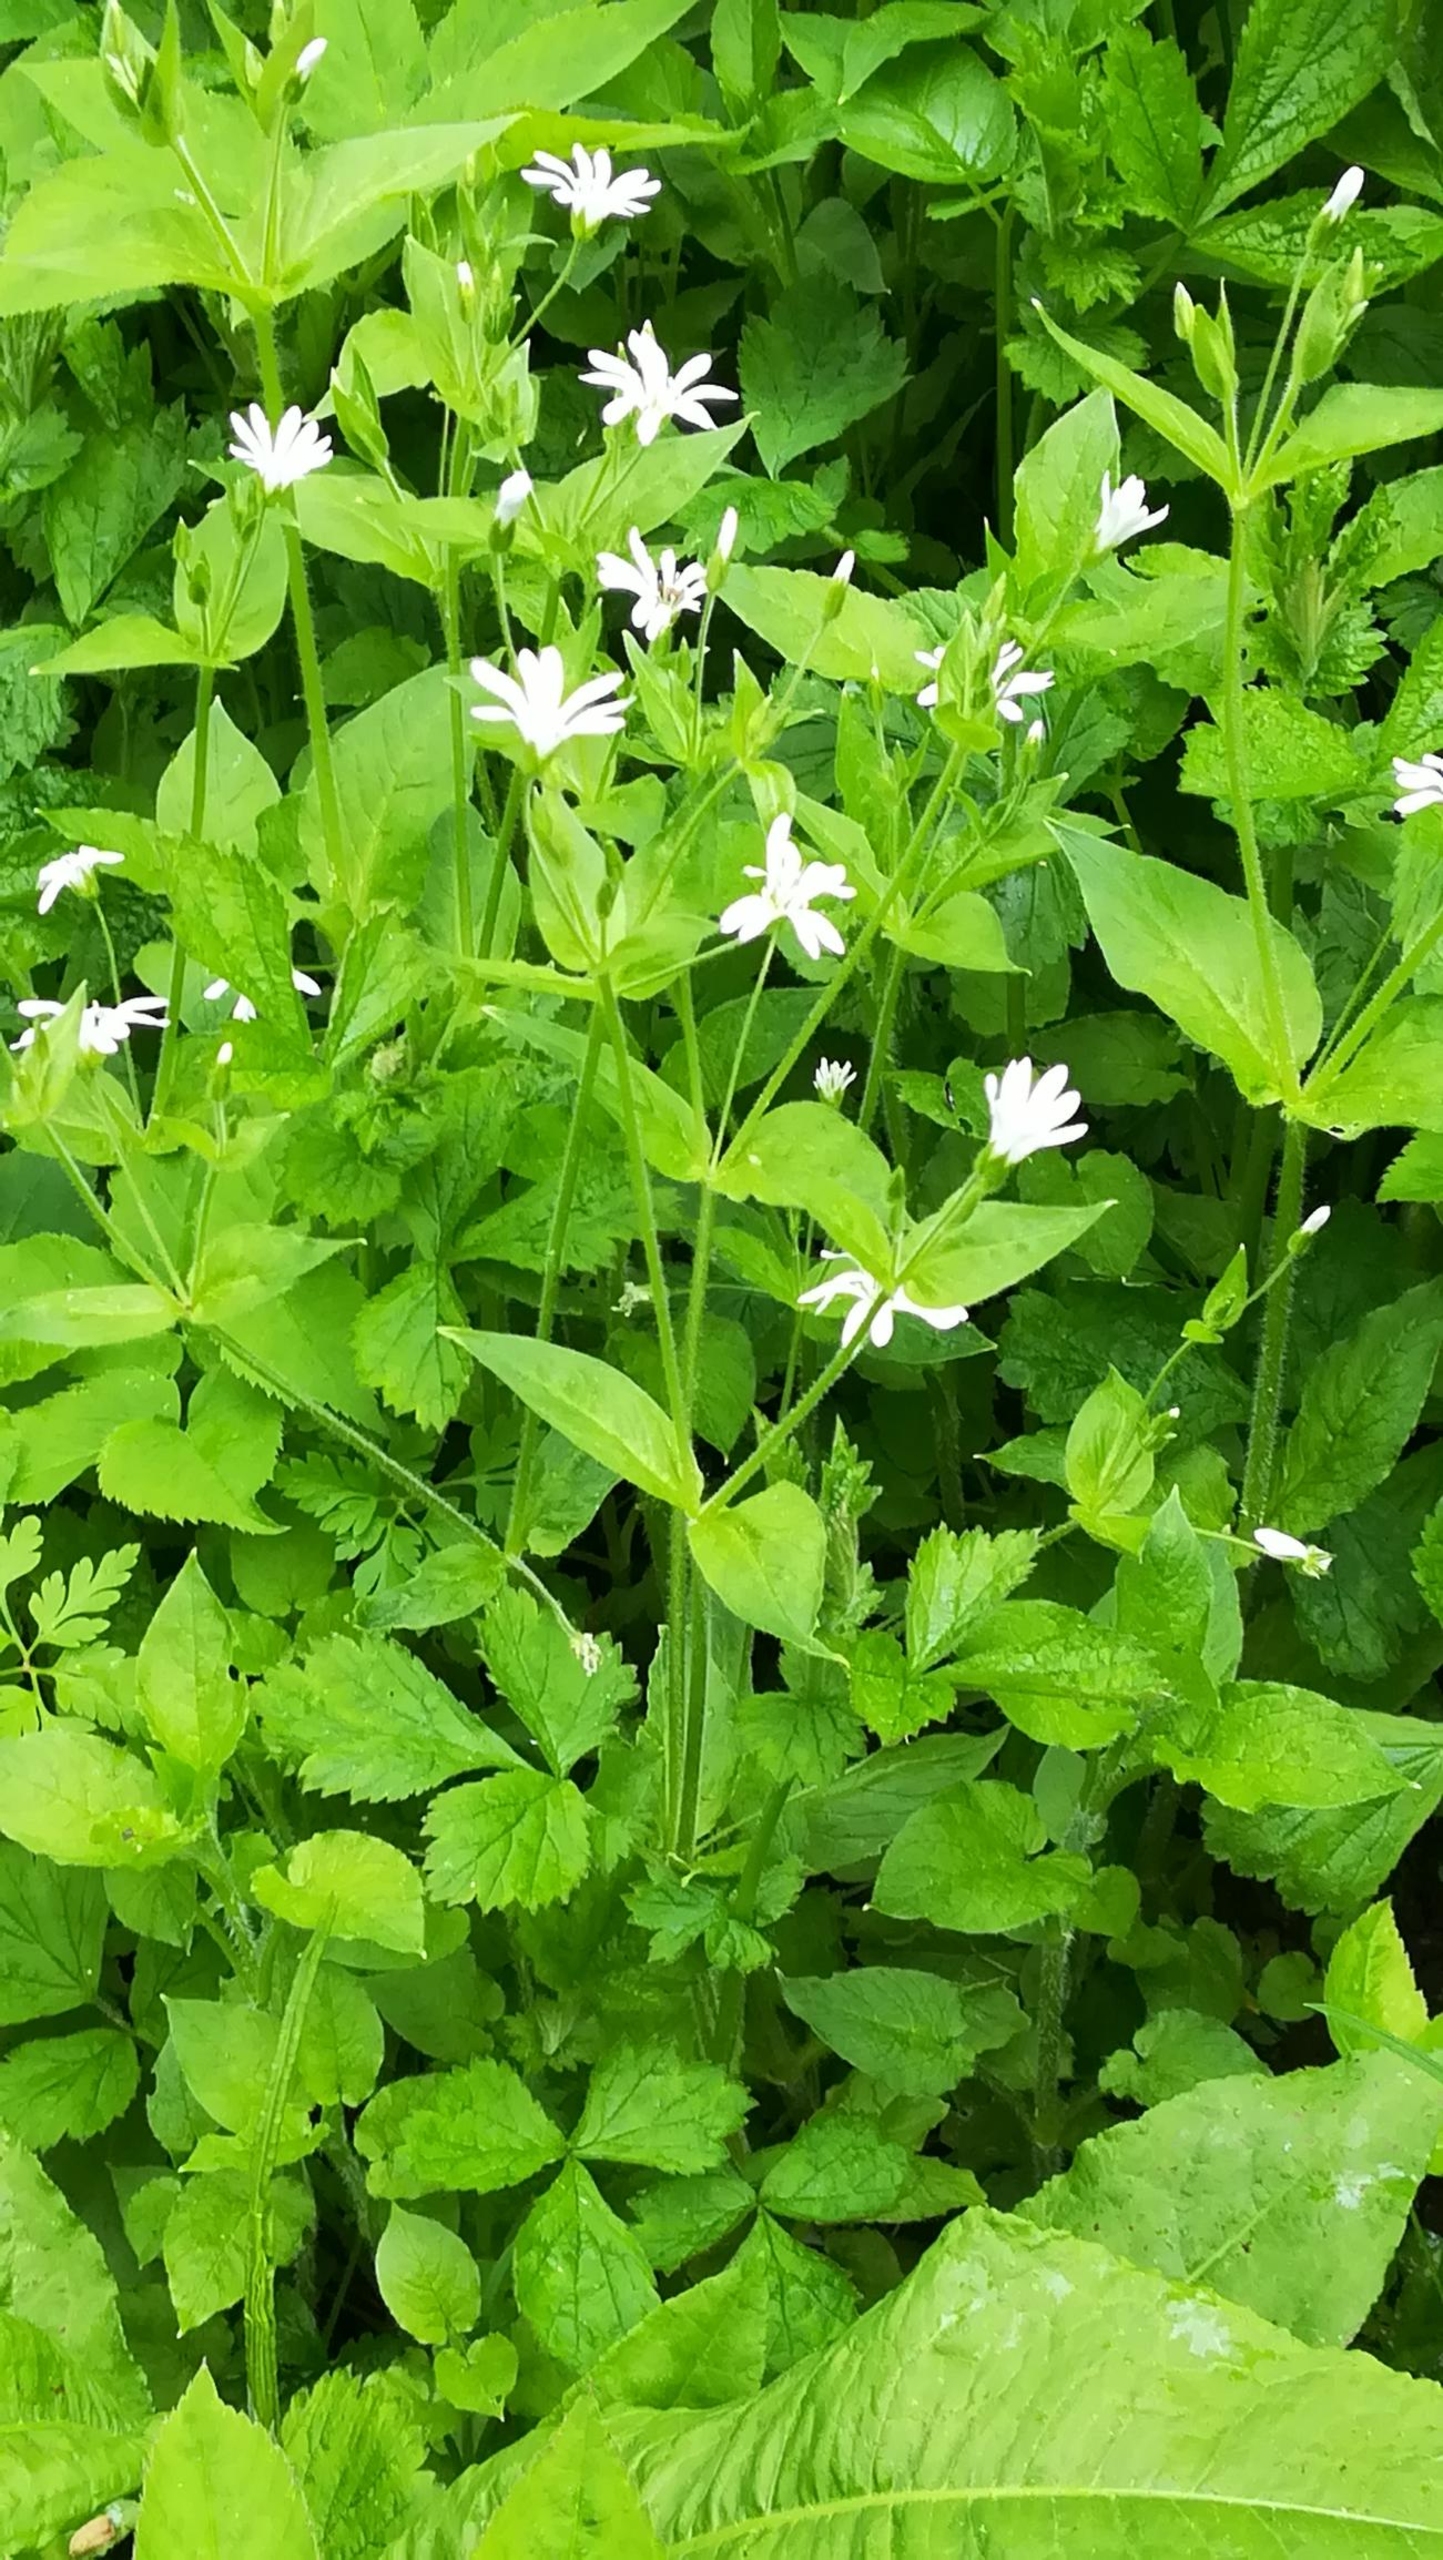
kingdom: Plantae
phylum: Tracheophyta
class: Magnoliopsida
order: Caryophyllales
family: Caryophyllaceae
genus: Stellaria
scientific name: Stellaria nemorum
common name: Lund-fladstjerne
